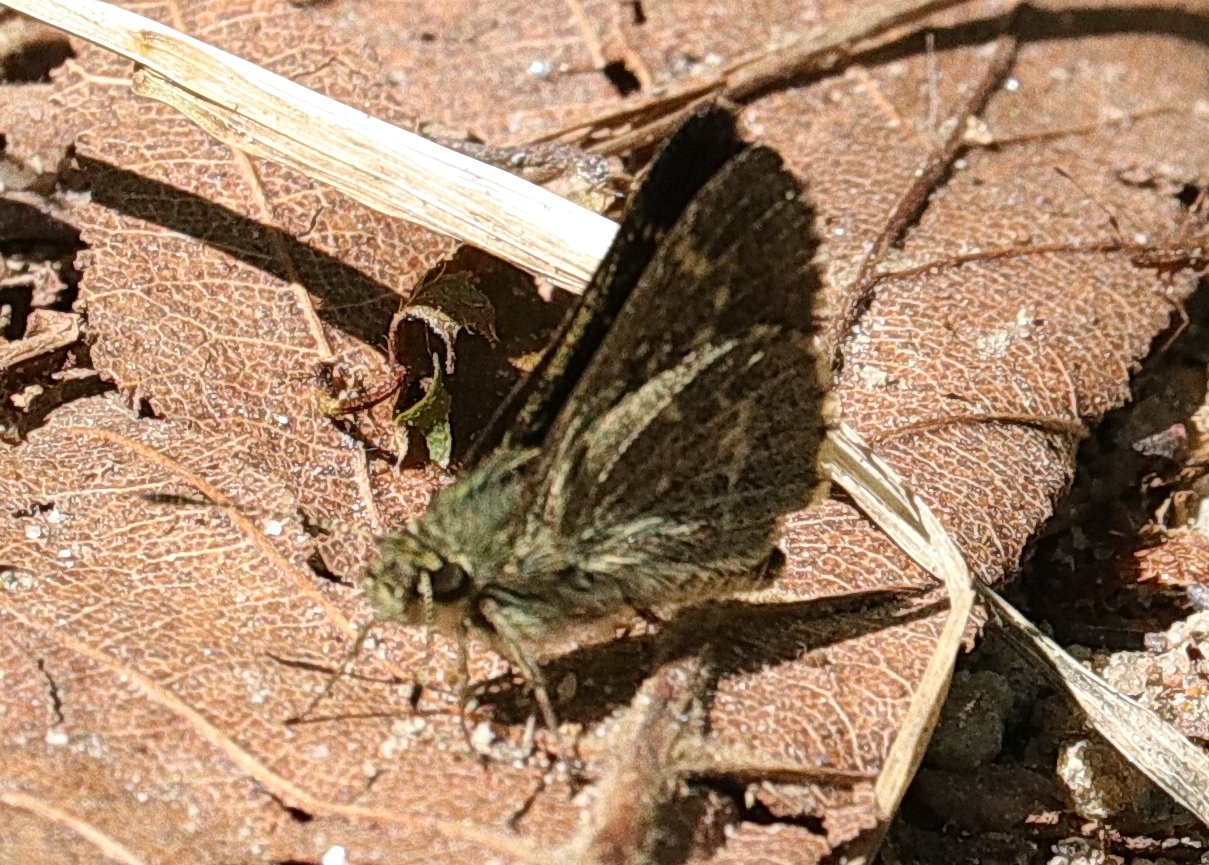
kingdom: Animalia
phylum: Arthropoda
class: Insecta
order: Lepidoptera
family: Hesperiidae
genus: Mastor
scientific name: Mastor hegon
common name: Pepper and Salt Skipper
